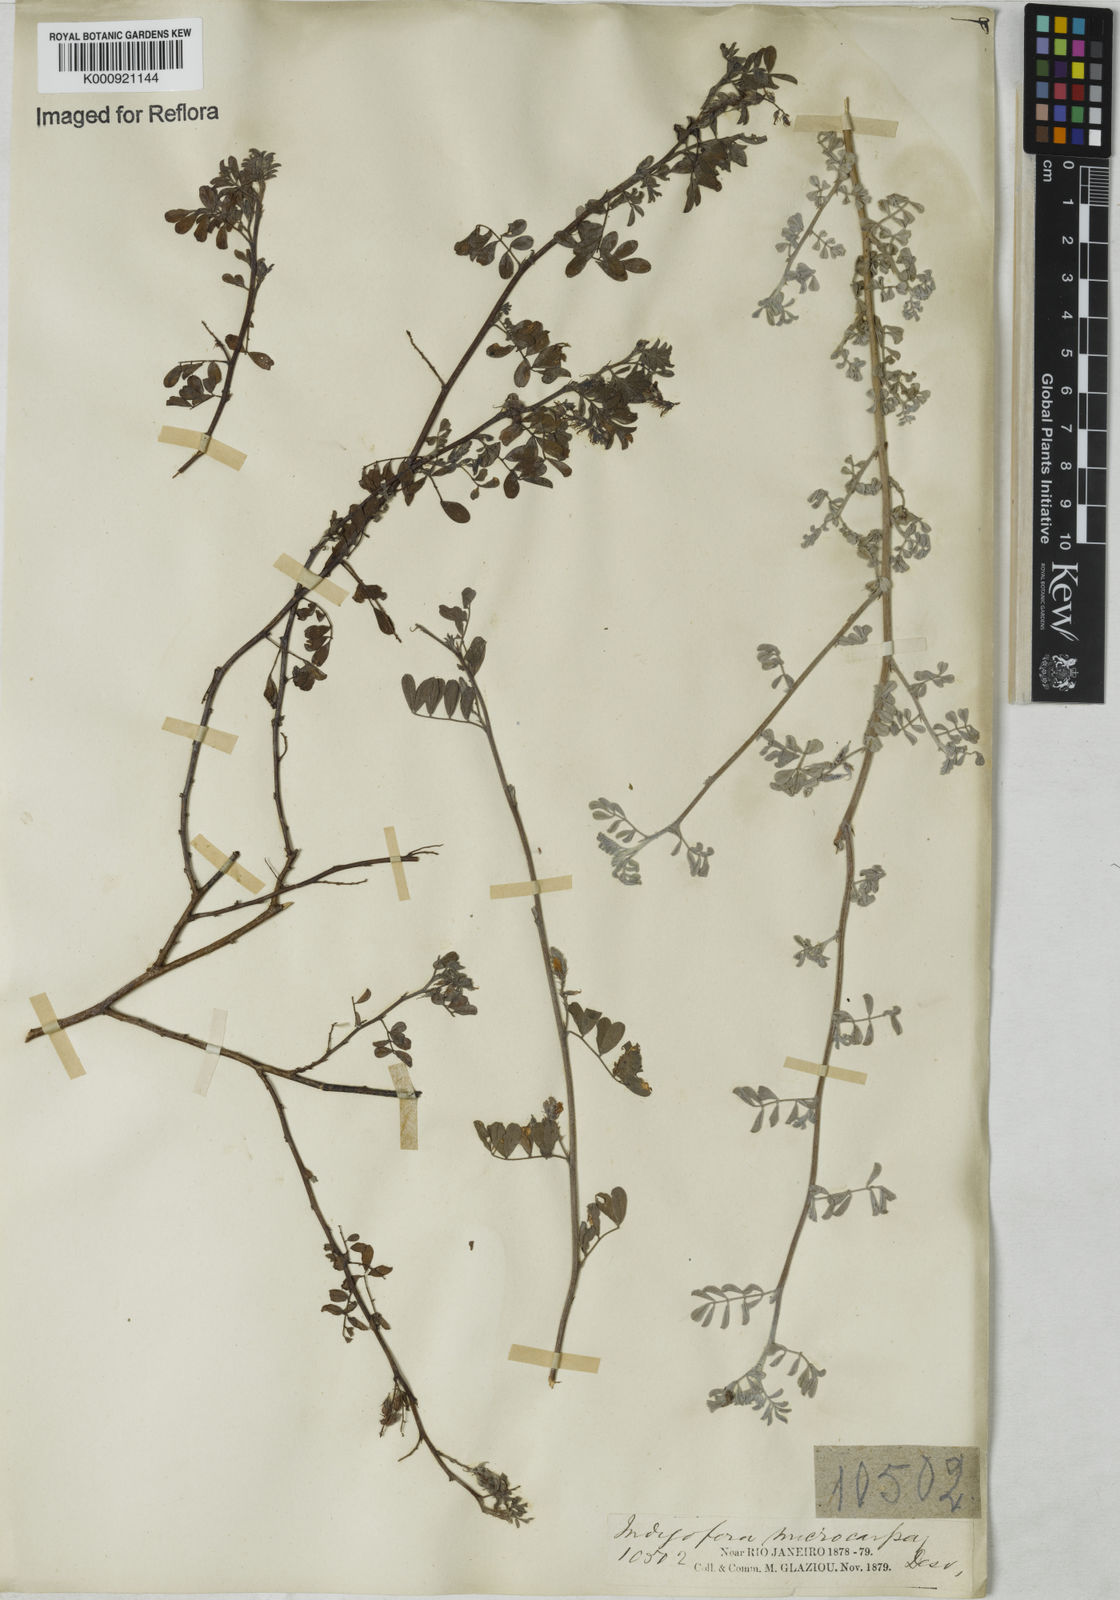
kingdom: Plantae
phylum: Tracheophyta
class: Magnoliopsida
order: Fabales
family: Fabaceae
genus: Indigofera
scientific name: Indigofera microcarpa
